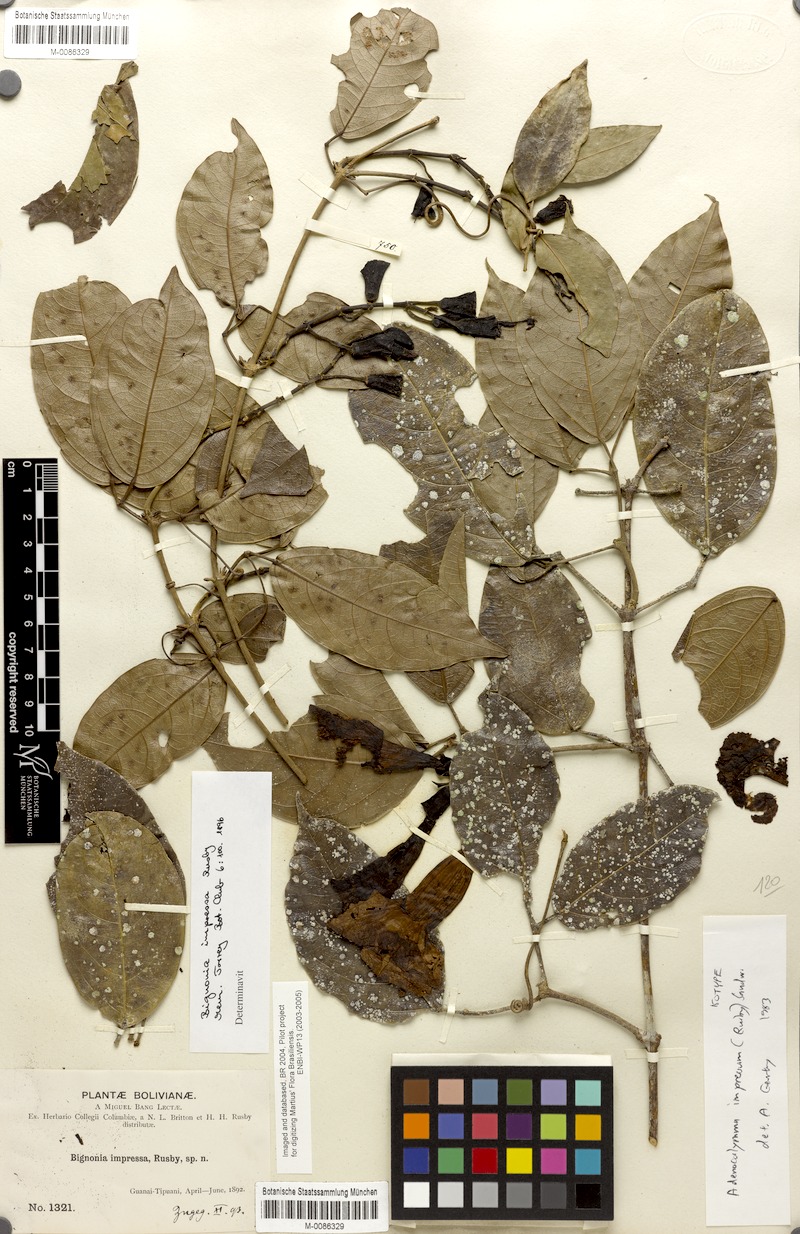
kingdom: Plantae
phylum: Tracheophyta
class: Magnoliopsida
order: Lamiales
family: Bignoniaceae
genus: Adenocalymma
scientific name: Adenocalymma impressum
